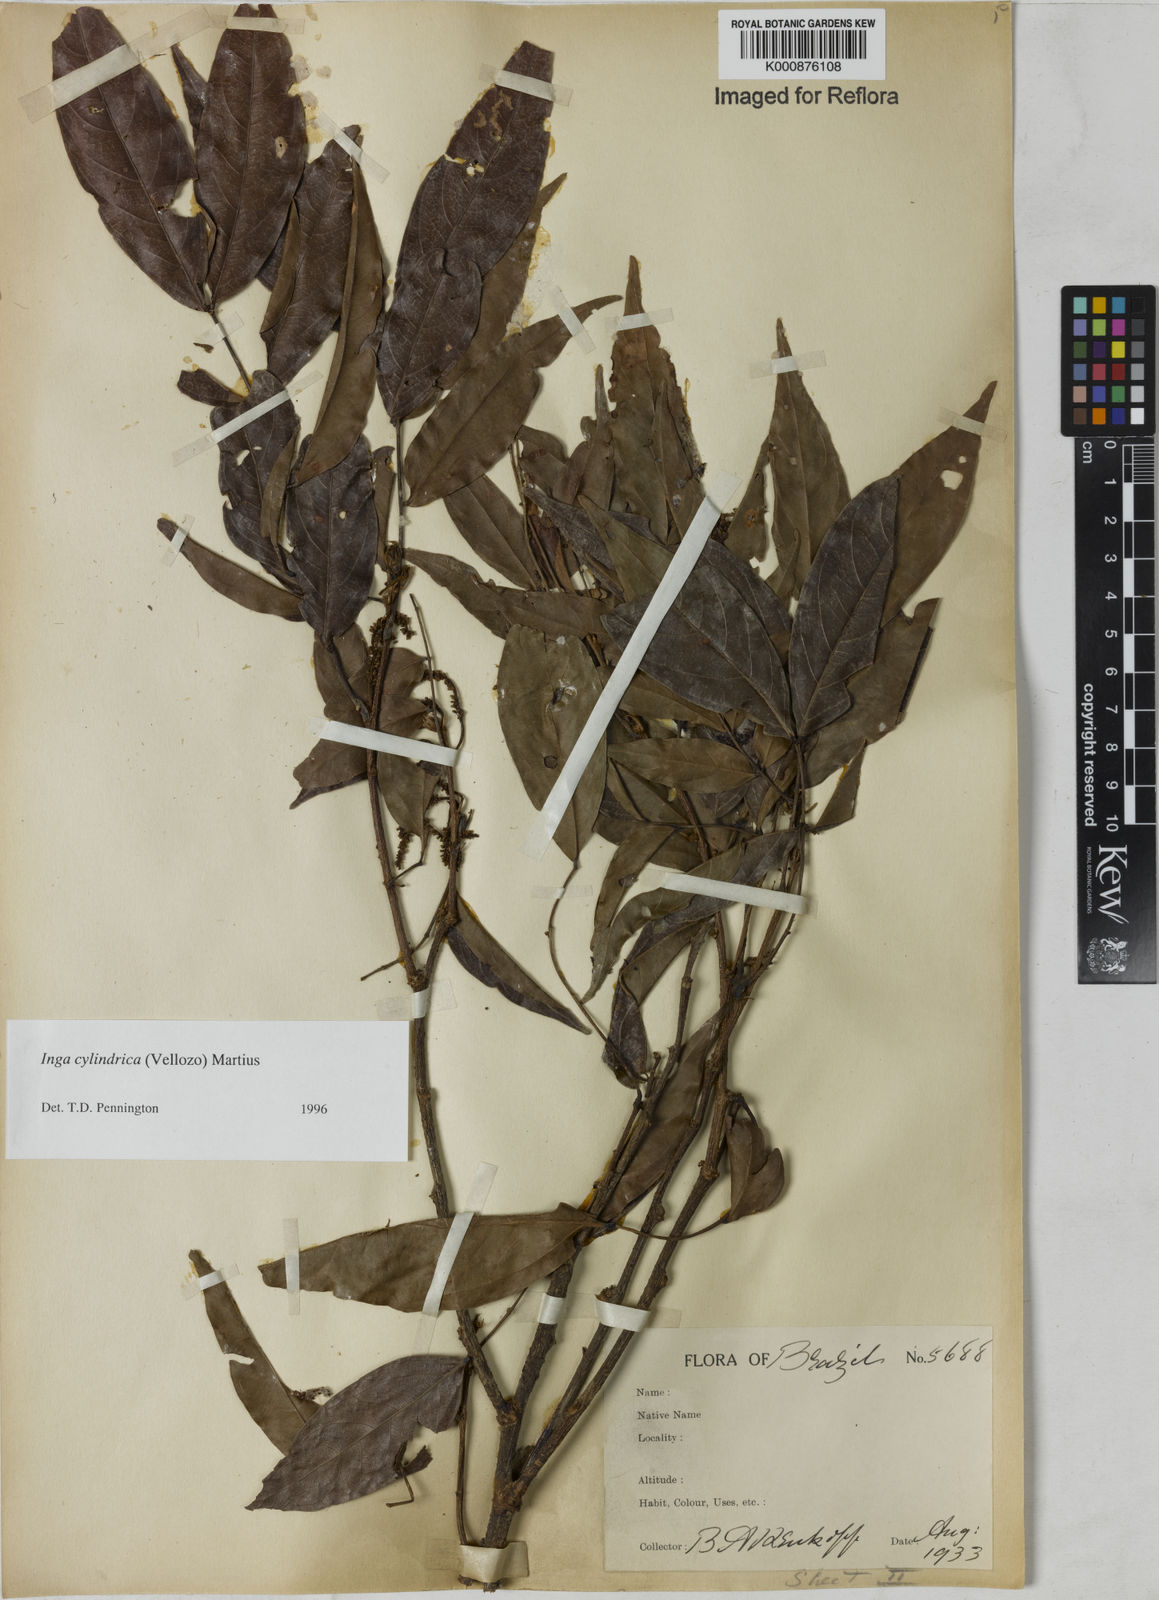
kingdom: Plantae
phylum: Tracheophyta
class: Magnoliopsida
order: Fabales
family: Fabaceae
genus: Inga
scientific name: Inga cylindrica
